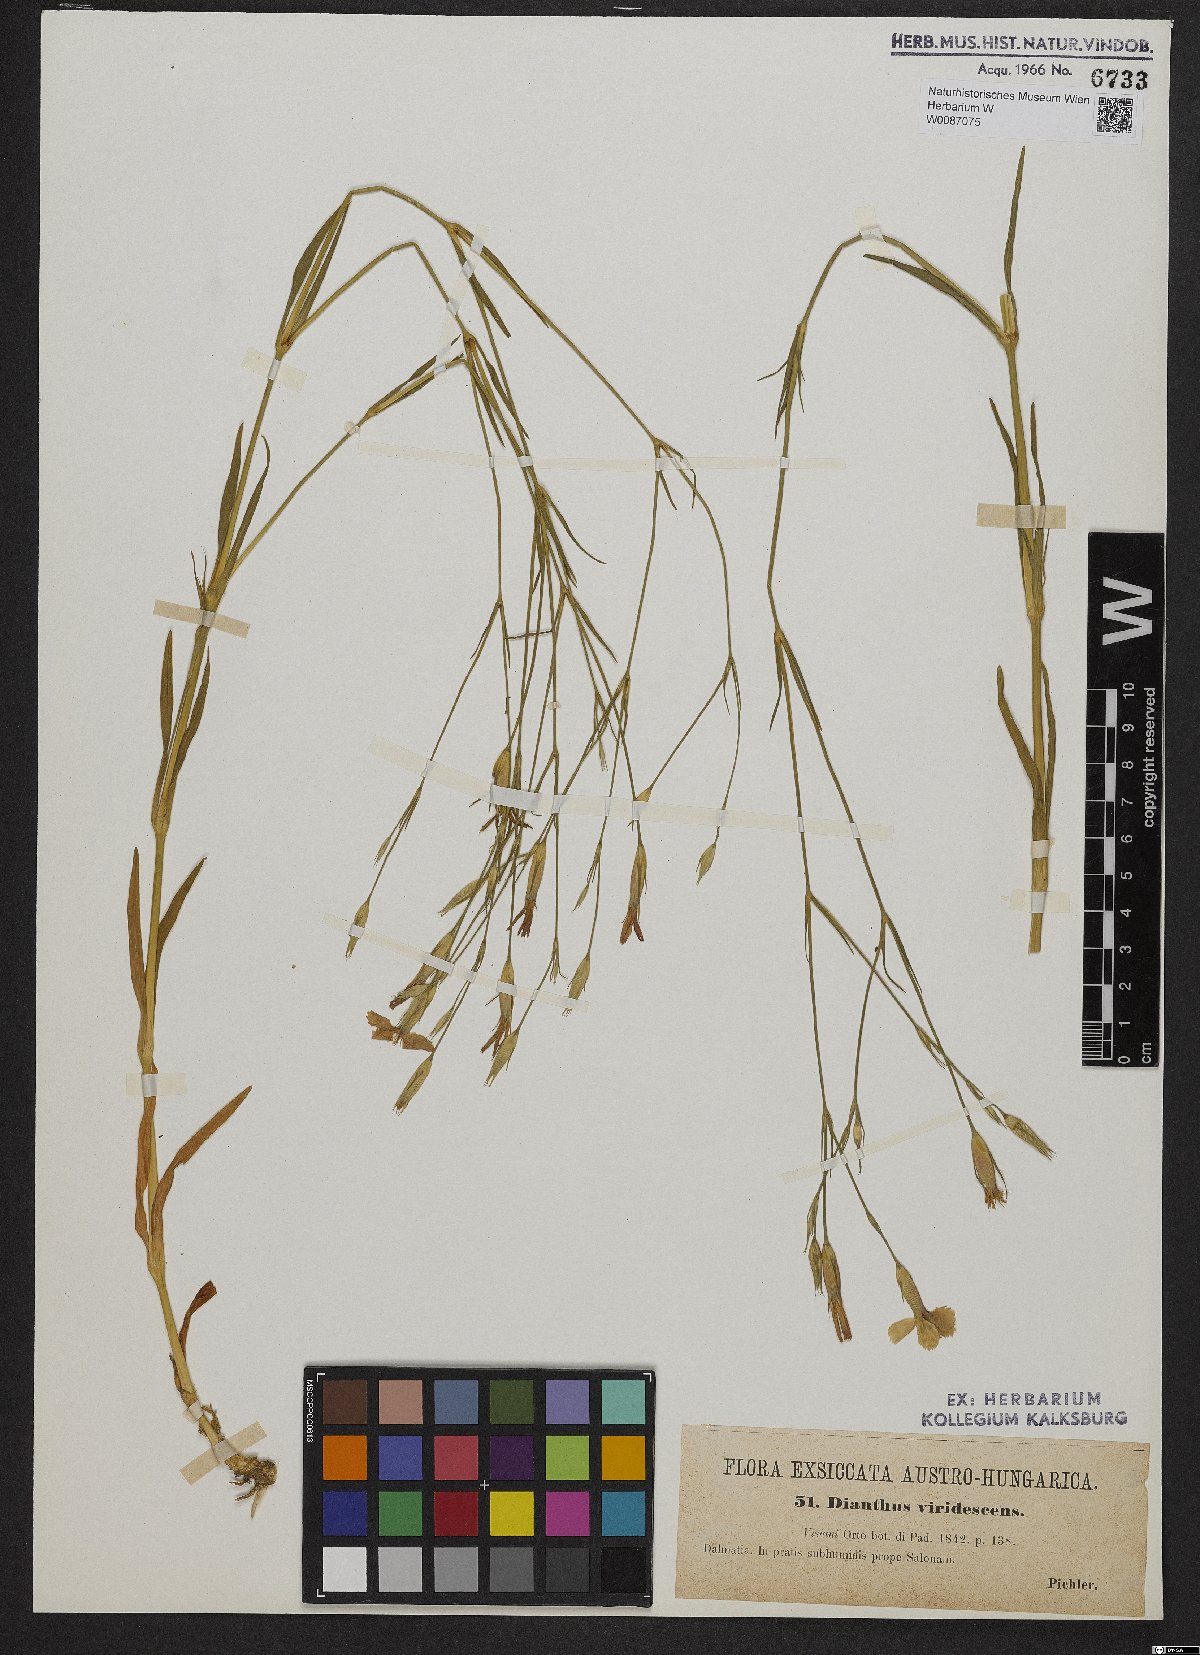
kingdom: Plantae
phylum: Tracheophyta
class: Magnoliopsida
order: Caryophyllales
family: Caryophyllaceae
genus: Dianthus
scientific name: Dianthus viridescens
